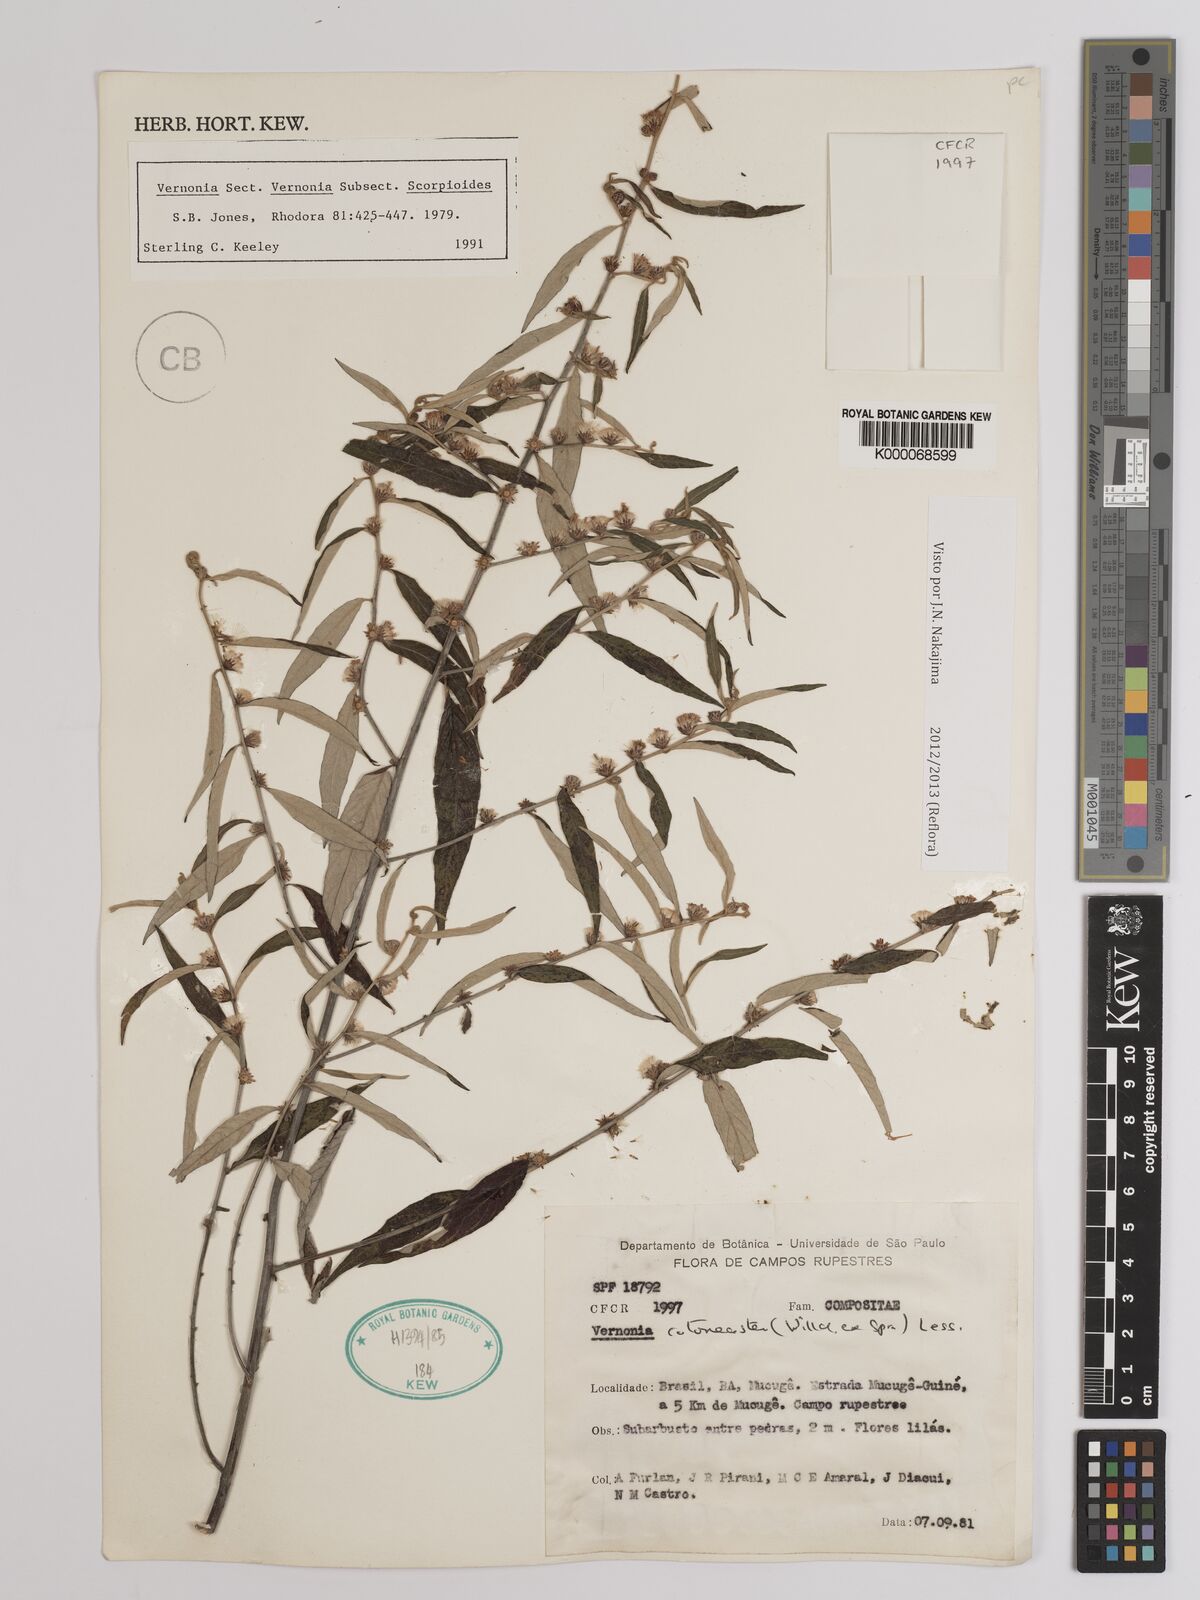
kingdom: Plantae
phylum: Tracheophyta
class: Magnoliopsida
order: Asterales
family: Asteraceae
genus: Lepidaploa
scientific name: Lepidaploa cotoneaster
